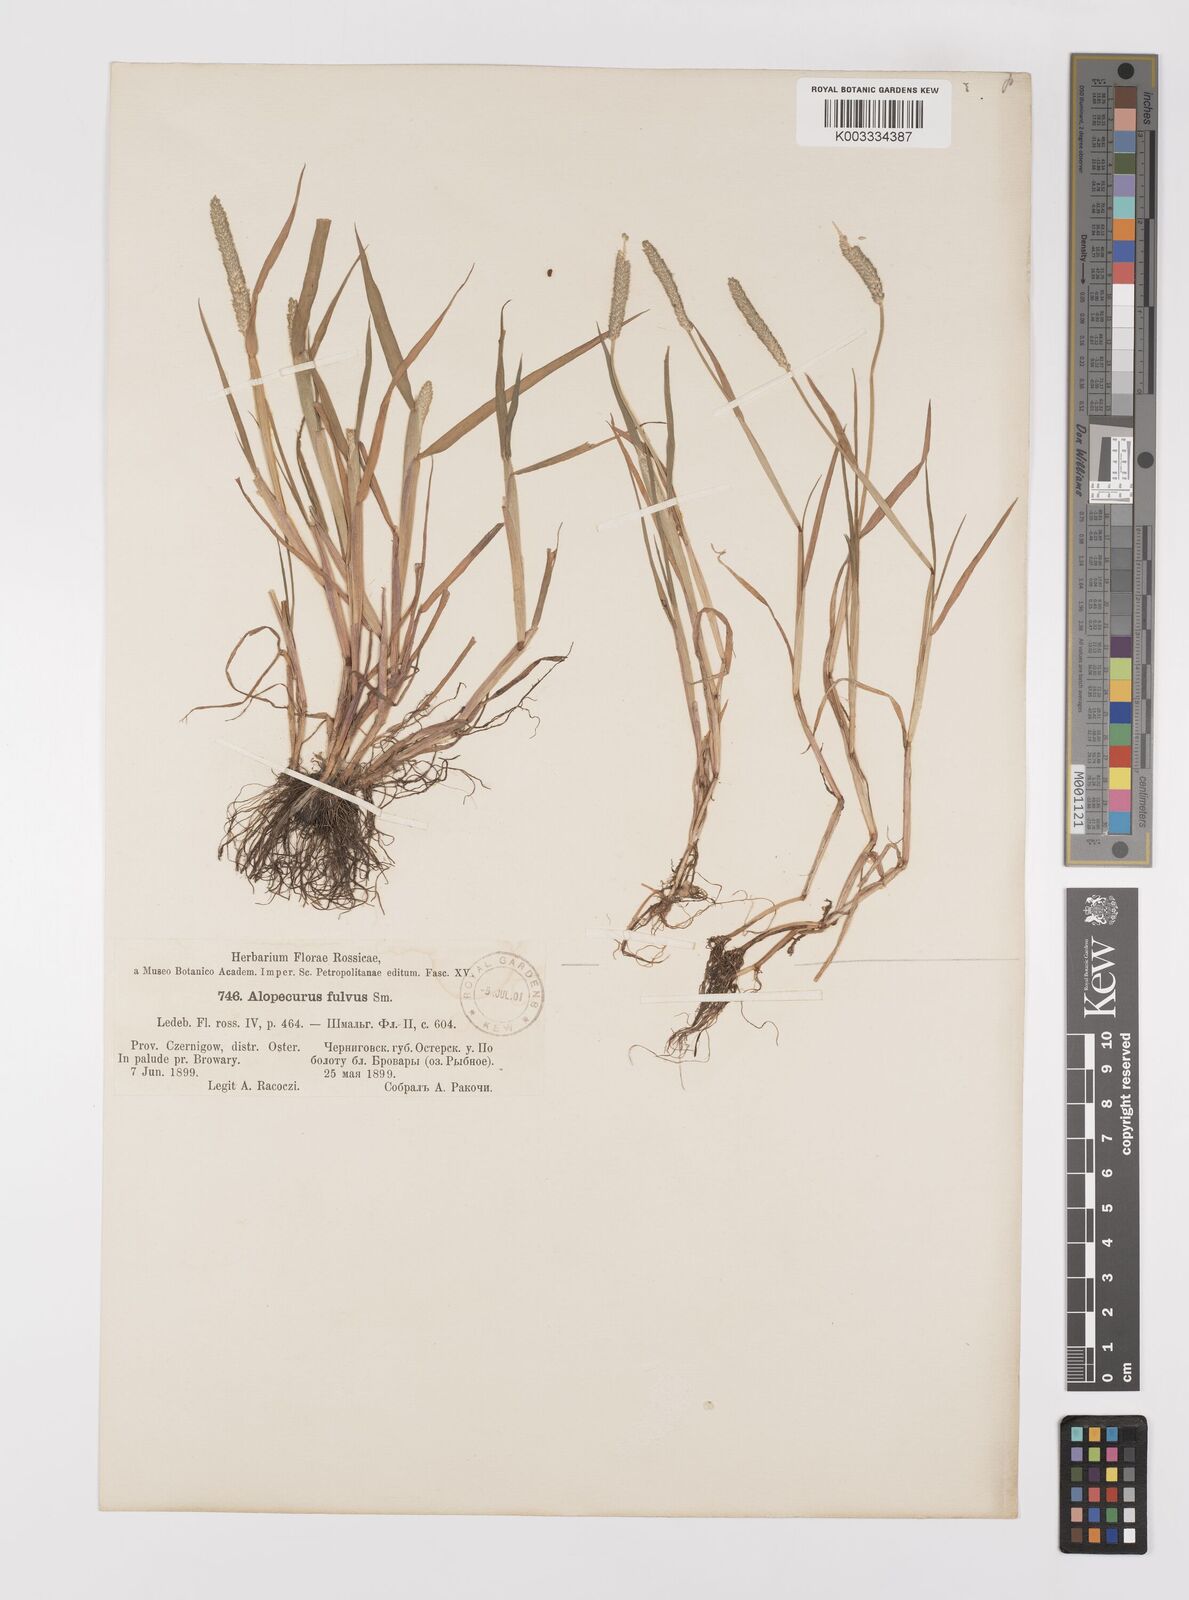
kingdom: Plantae
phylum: Tracheophyta
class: Liliopsida
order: Poales
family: Poaceae
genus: Alopecurus
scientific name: Alopecurus aequalis
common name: Orange foxtail
